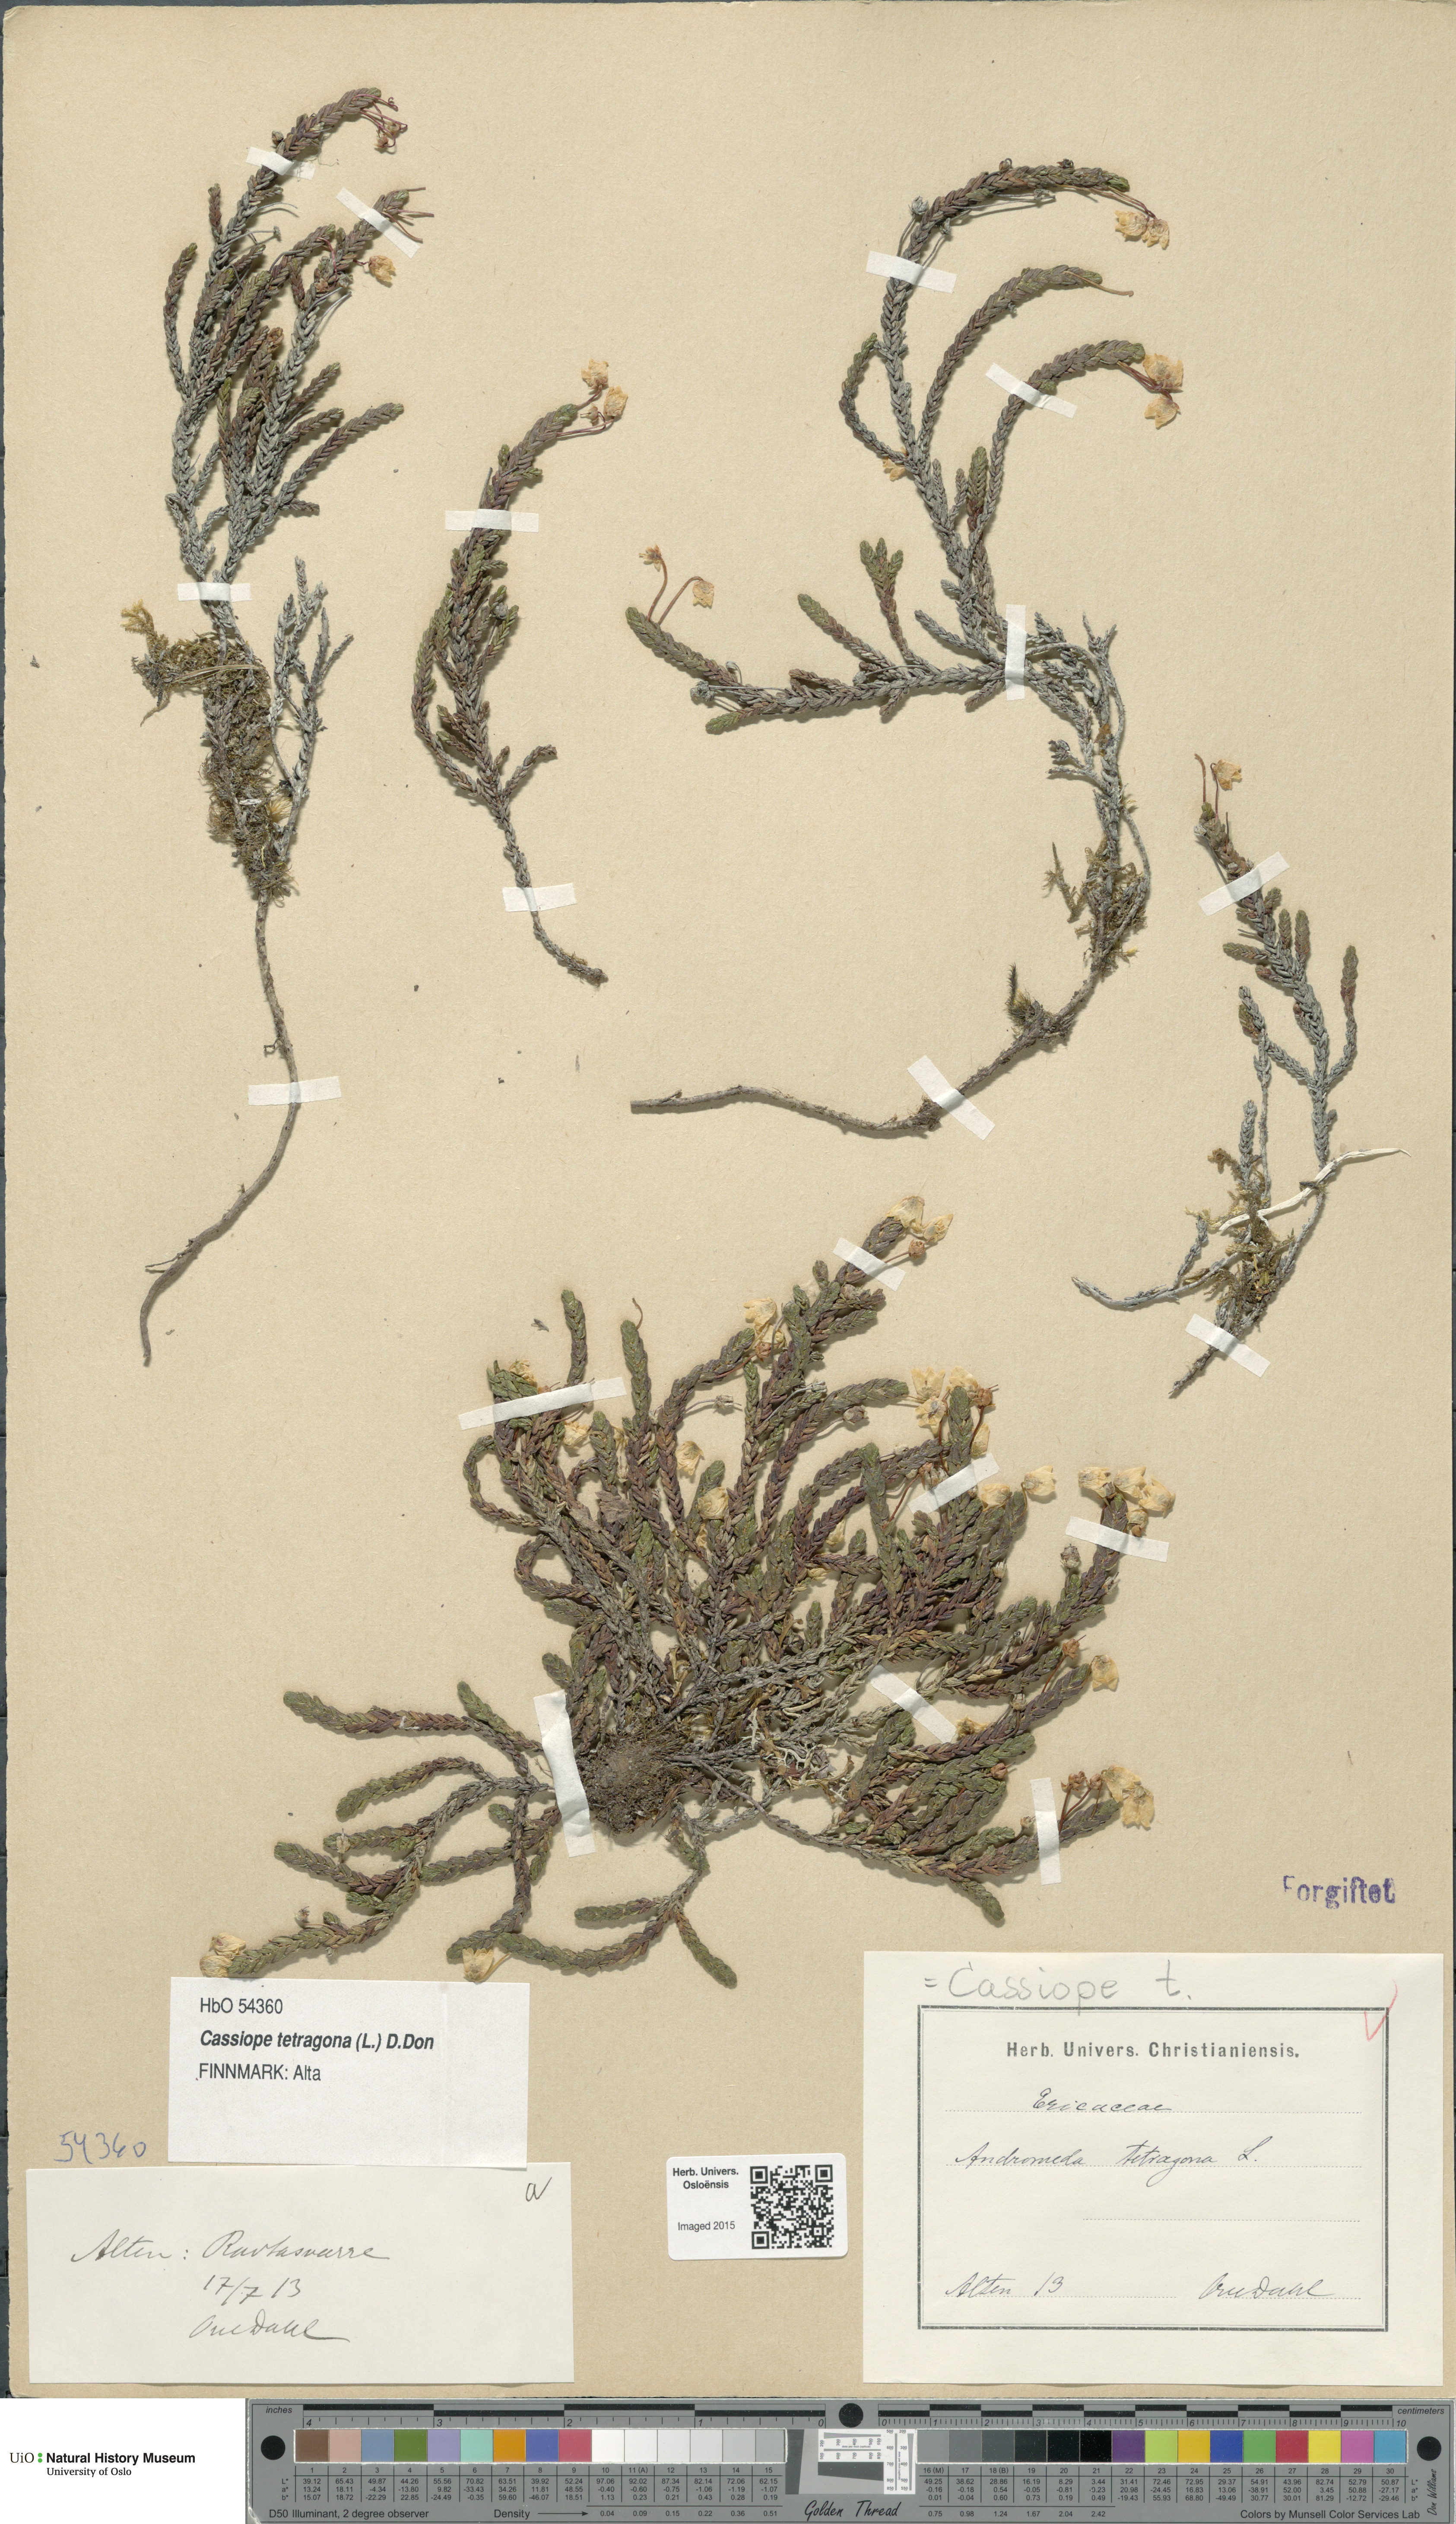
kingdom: Plantae
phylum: Tracheophyta
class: Magnoliopsida
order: Ericales
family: Ericaceae
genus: Cassiope
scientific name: Cassiope tetragona
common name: Arctic bell heather
